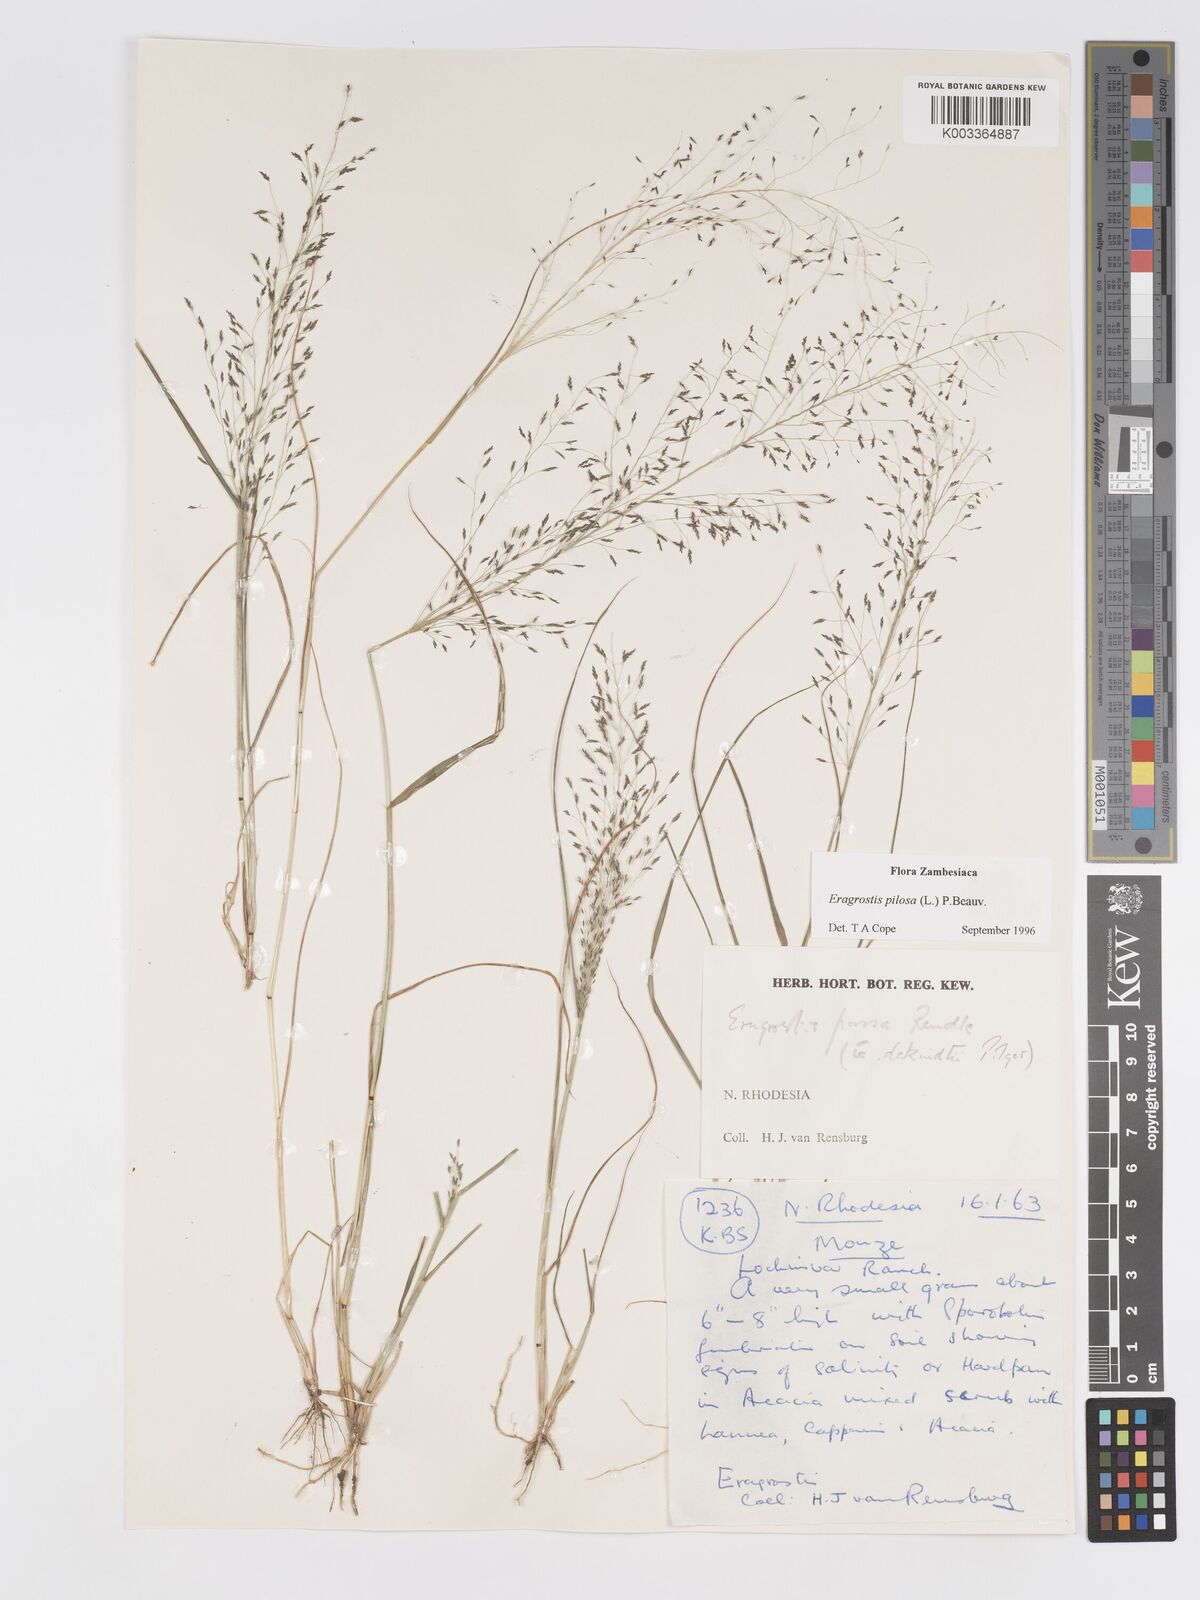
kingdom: Plantae
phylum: Tracheophyta
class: Liliopsida
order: Poales
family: Poaceae
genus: Eragrostis
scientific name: Eragrostis pilosa
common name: Indian lovegrass
